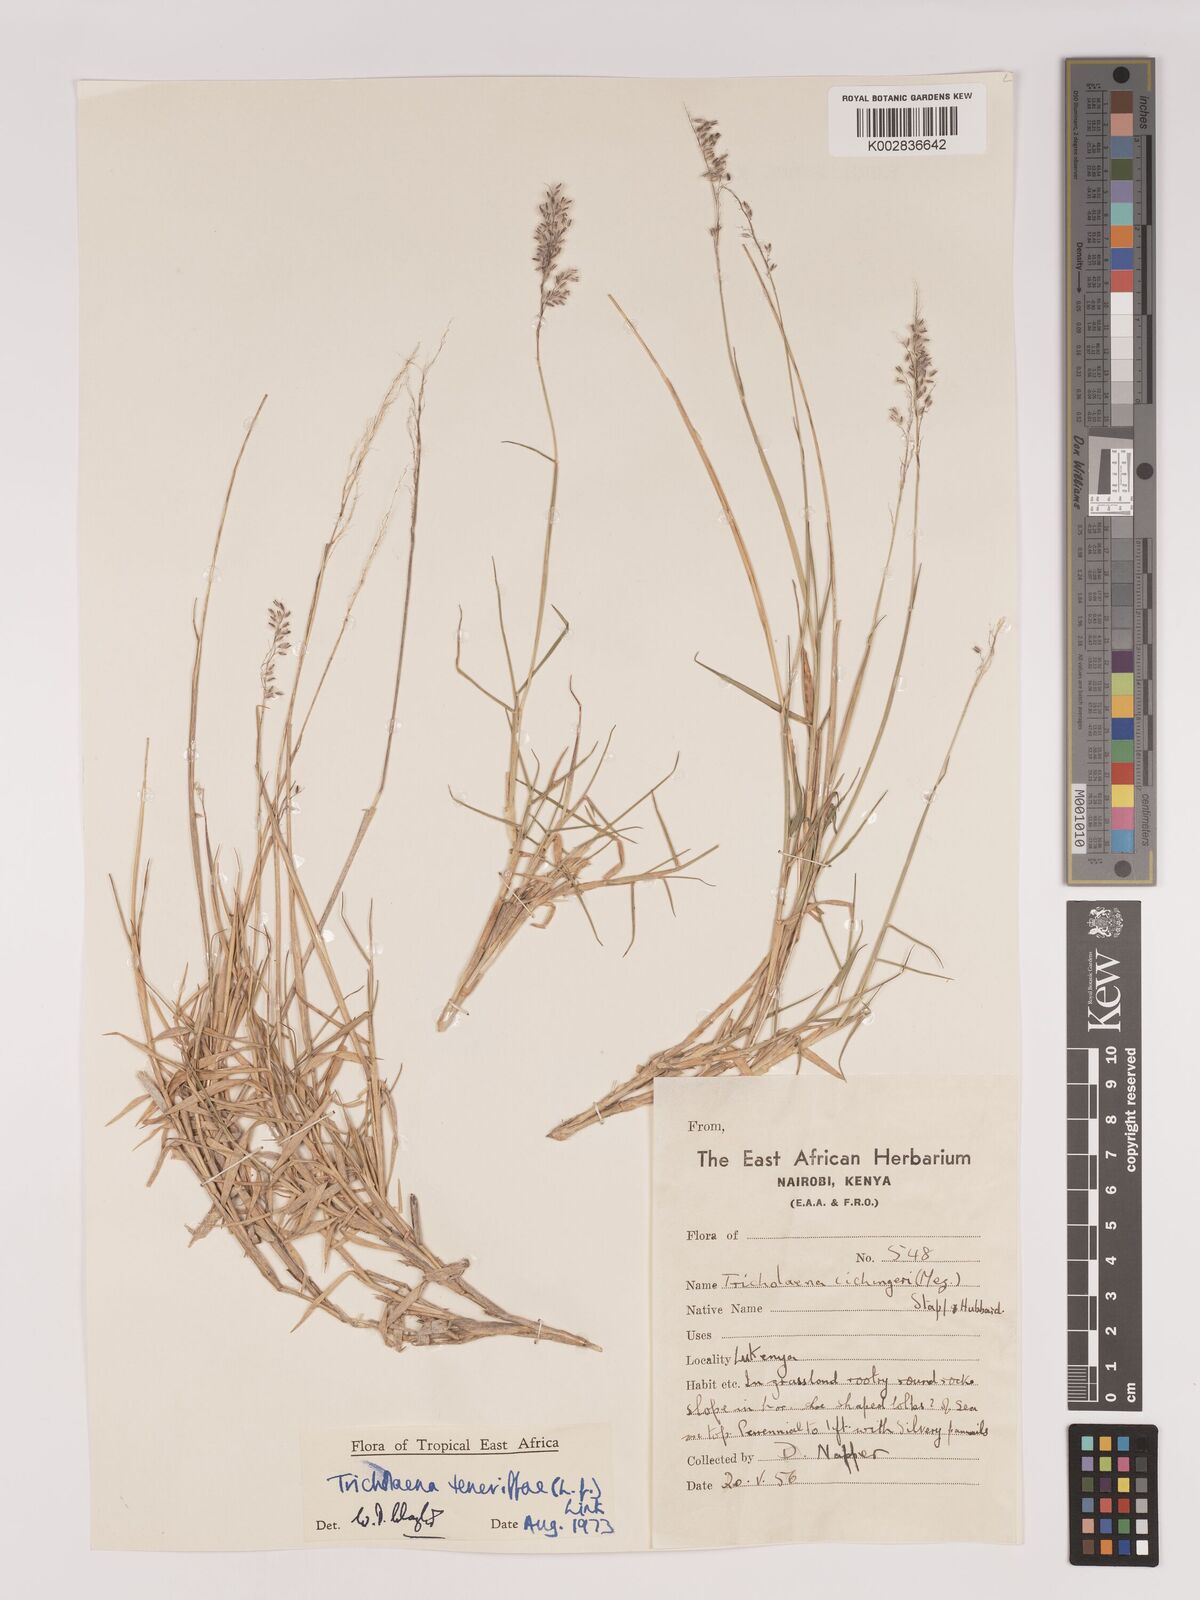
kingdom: Plantae
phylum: Tracheophyta
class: Liliopsida
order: Poales
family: Poaceae
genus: Tricholaena
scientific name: Tricholaena teneriffae
